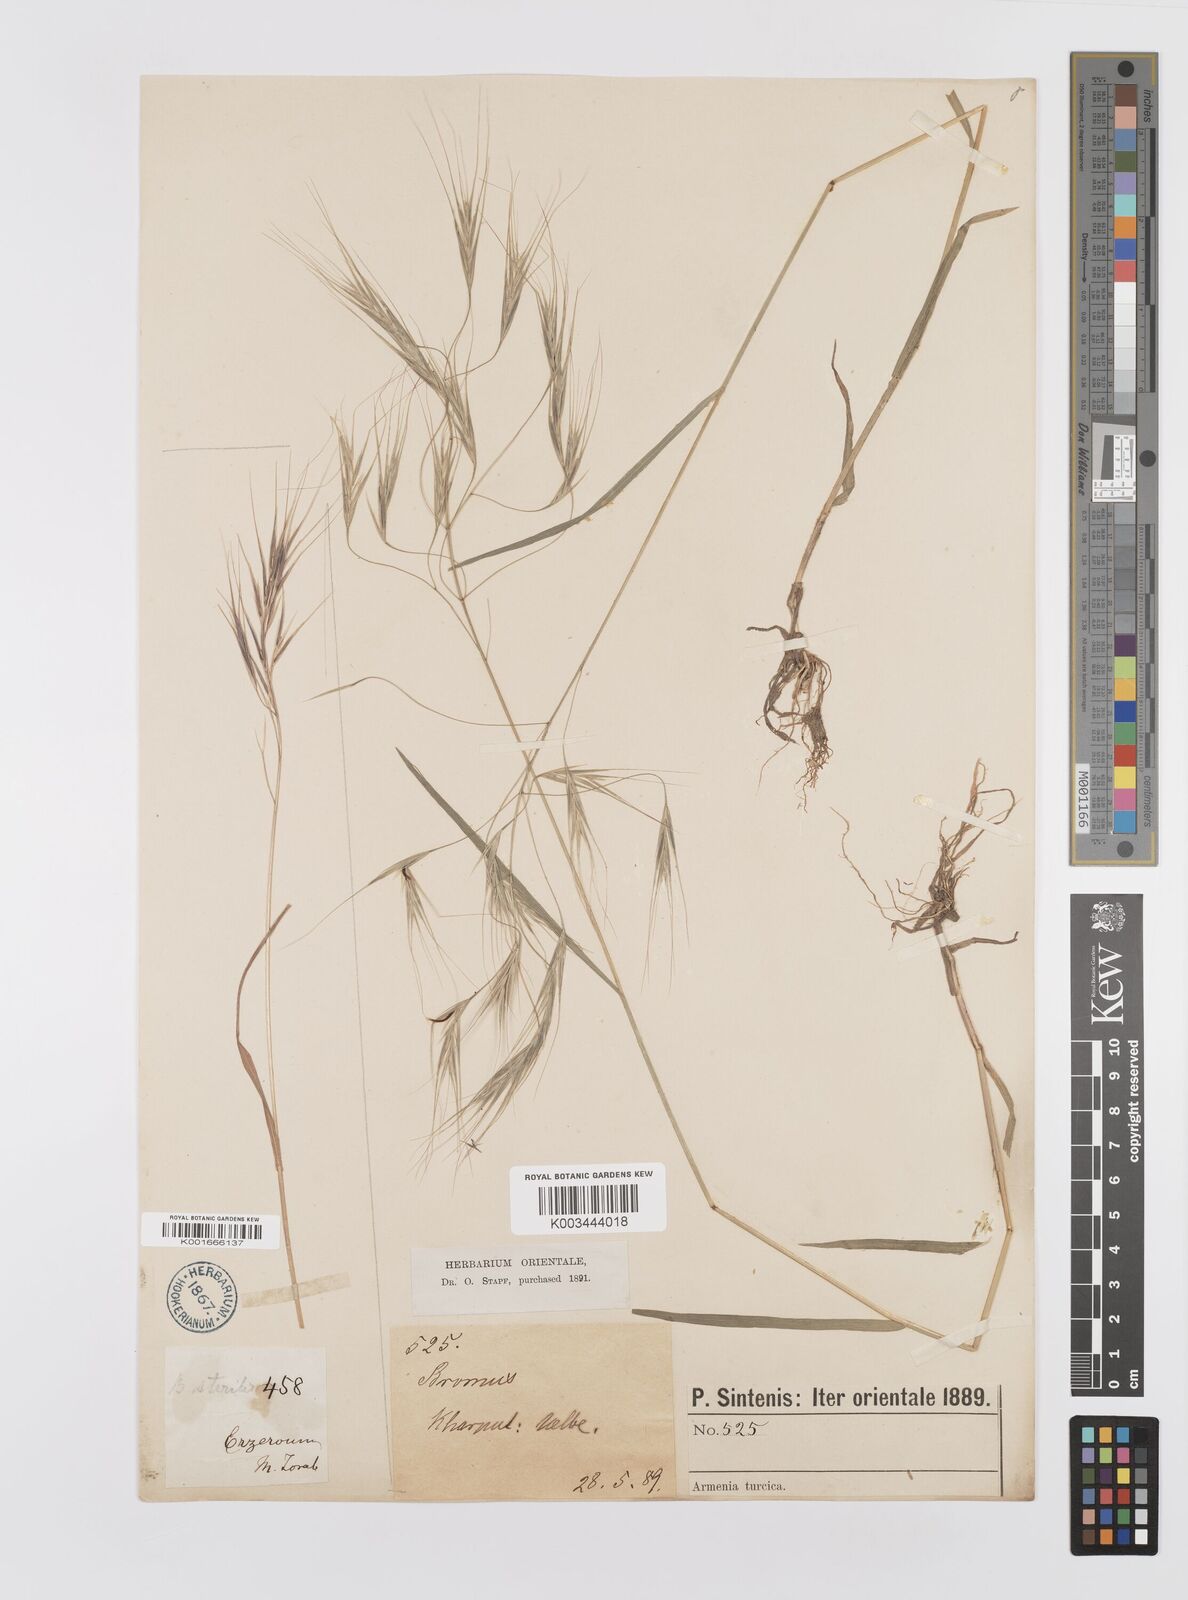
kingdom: Plantae
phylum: Tracheophyta
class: Liliopsida
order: Poales
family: Poaceae
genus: Bromus
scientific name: Bromus sterilis
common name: Poverty brome
